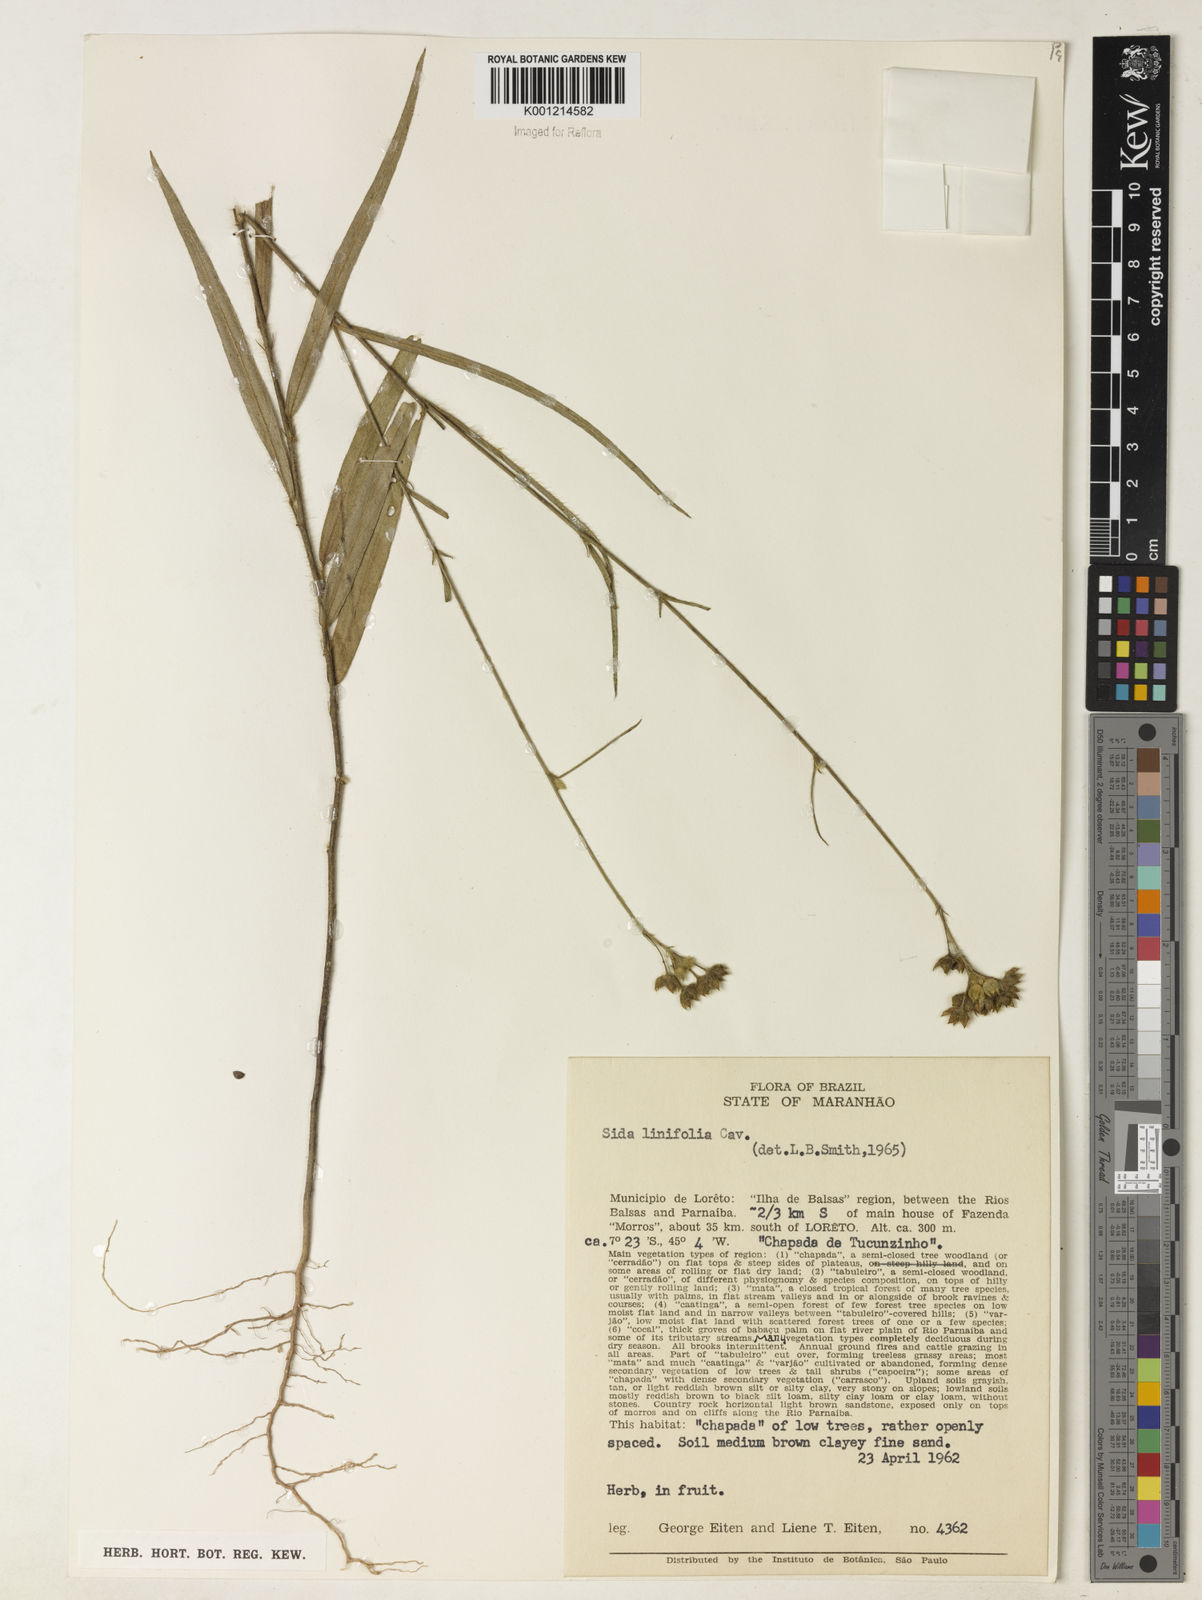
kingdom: Plantae
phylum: Tracheophyta
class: Magnoliopsida
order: Malvales
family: Malvaceae
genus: Sida
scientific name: Sida linifolia
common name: Flaxleaf fanpetals
